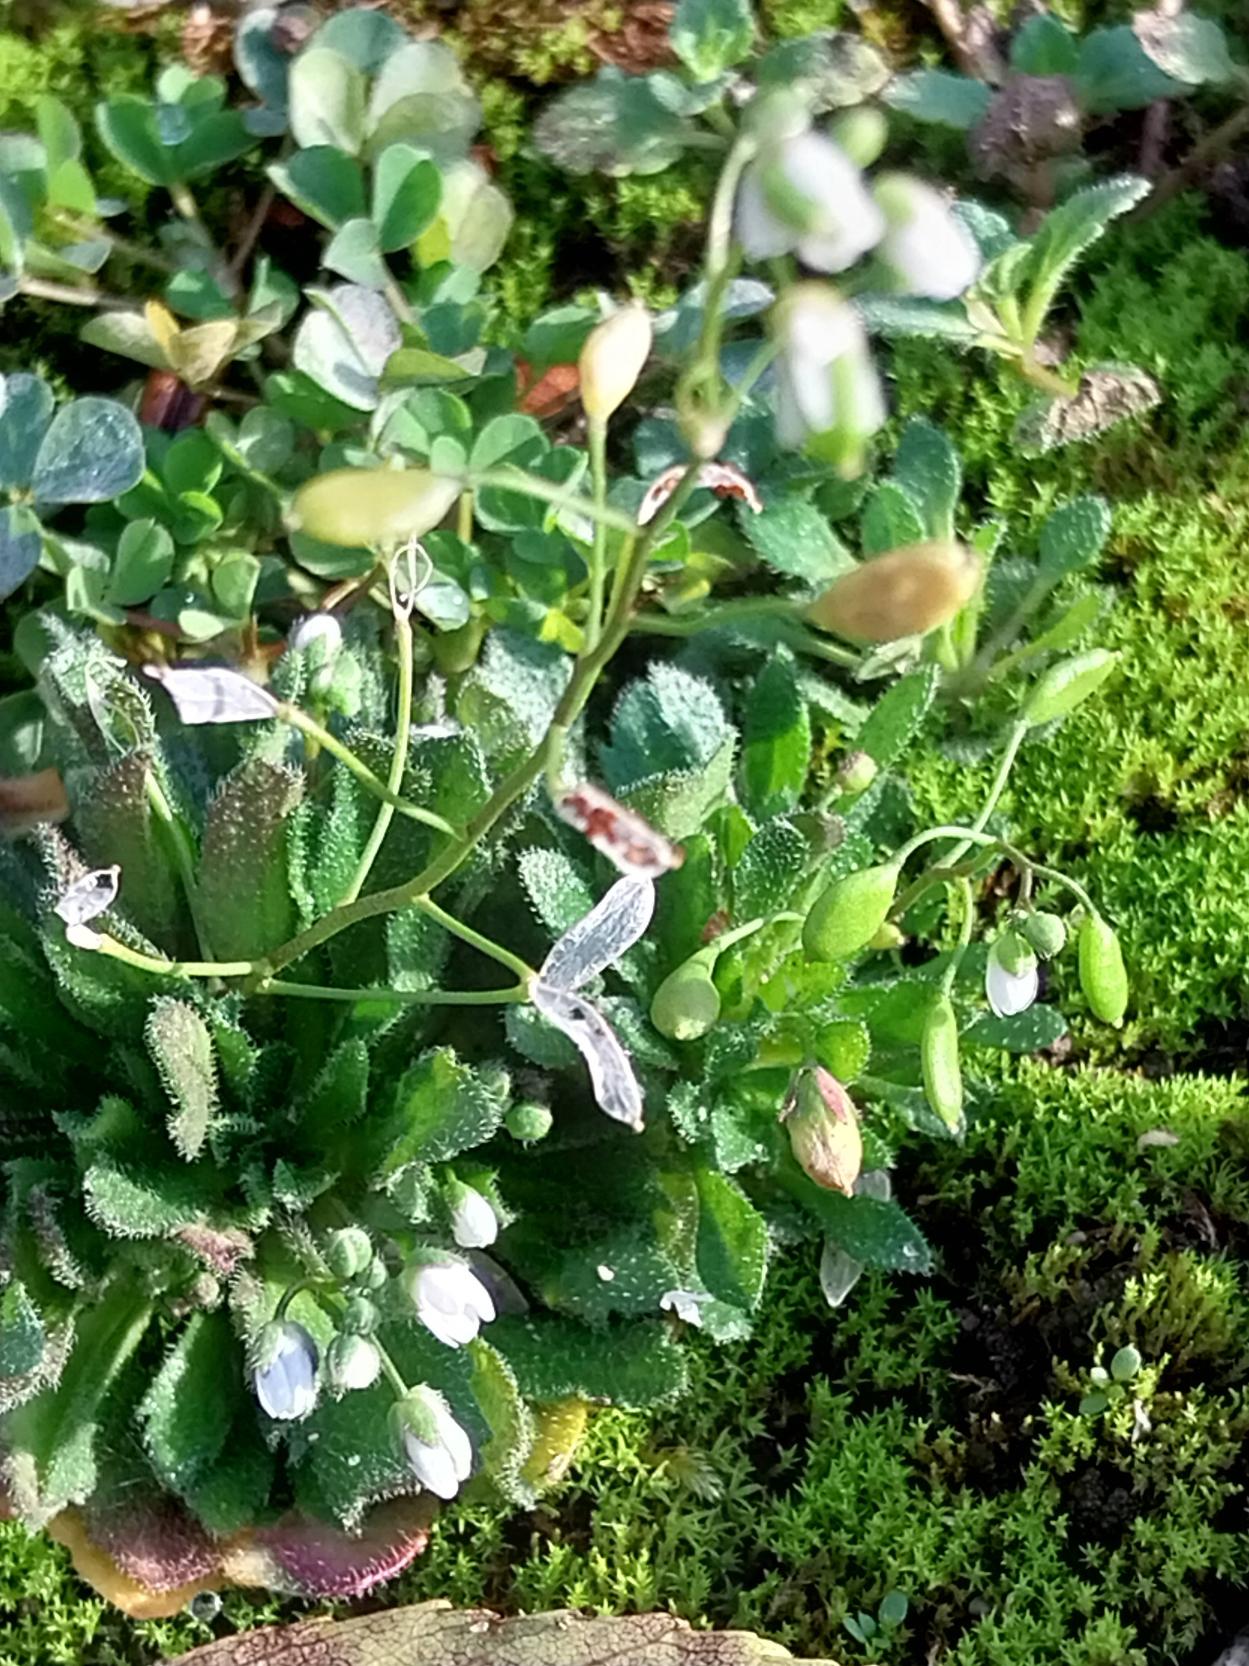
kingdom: Plantae
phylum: Tracheophyta
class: Magnoliopsida
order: Brassicales
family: Brassicaceae
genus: Draba
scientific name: Draba verna
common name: Vår-gæslingeblomst
